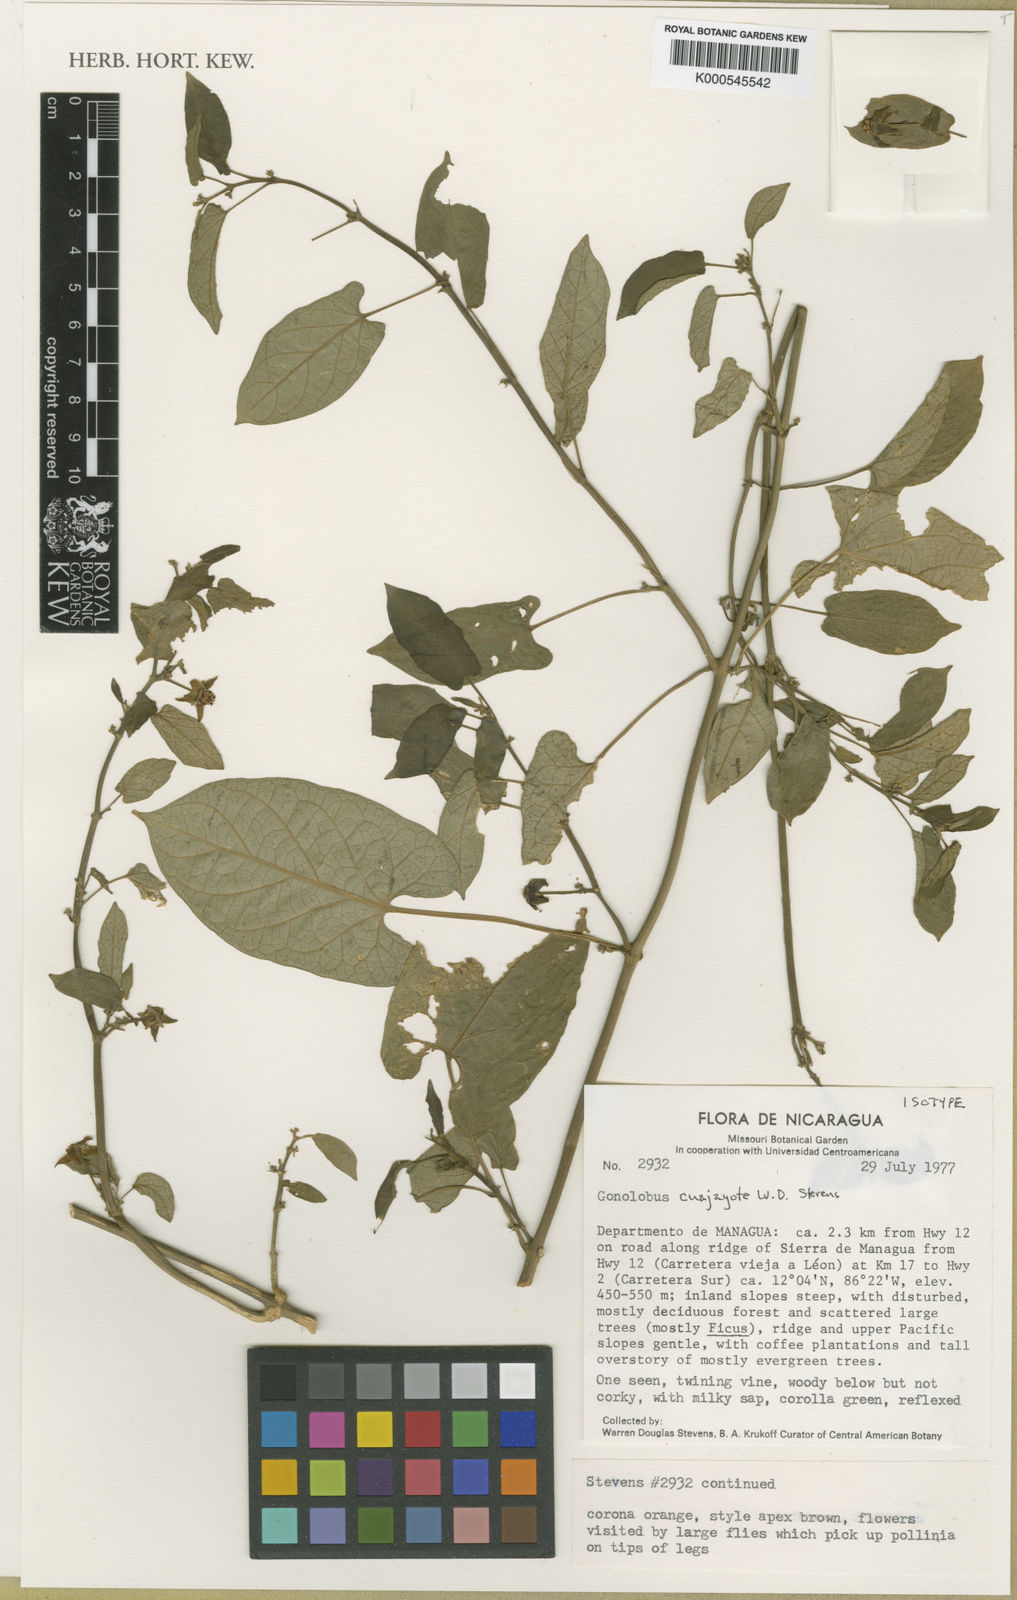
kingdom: Plantae
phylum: Tracheophyta
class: Magnoliopsida
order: Gentianales
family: Apocynaceae
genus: Gonolobus
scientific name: Gonolobus cuajayote
